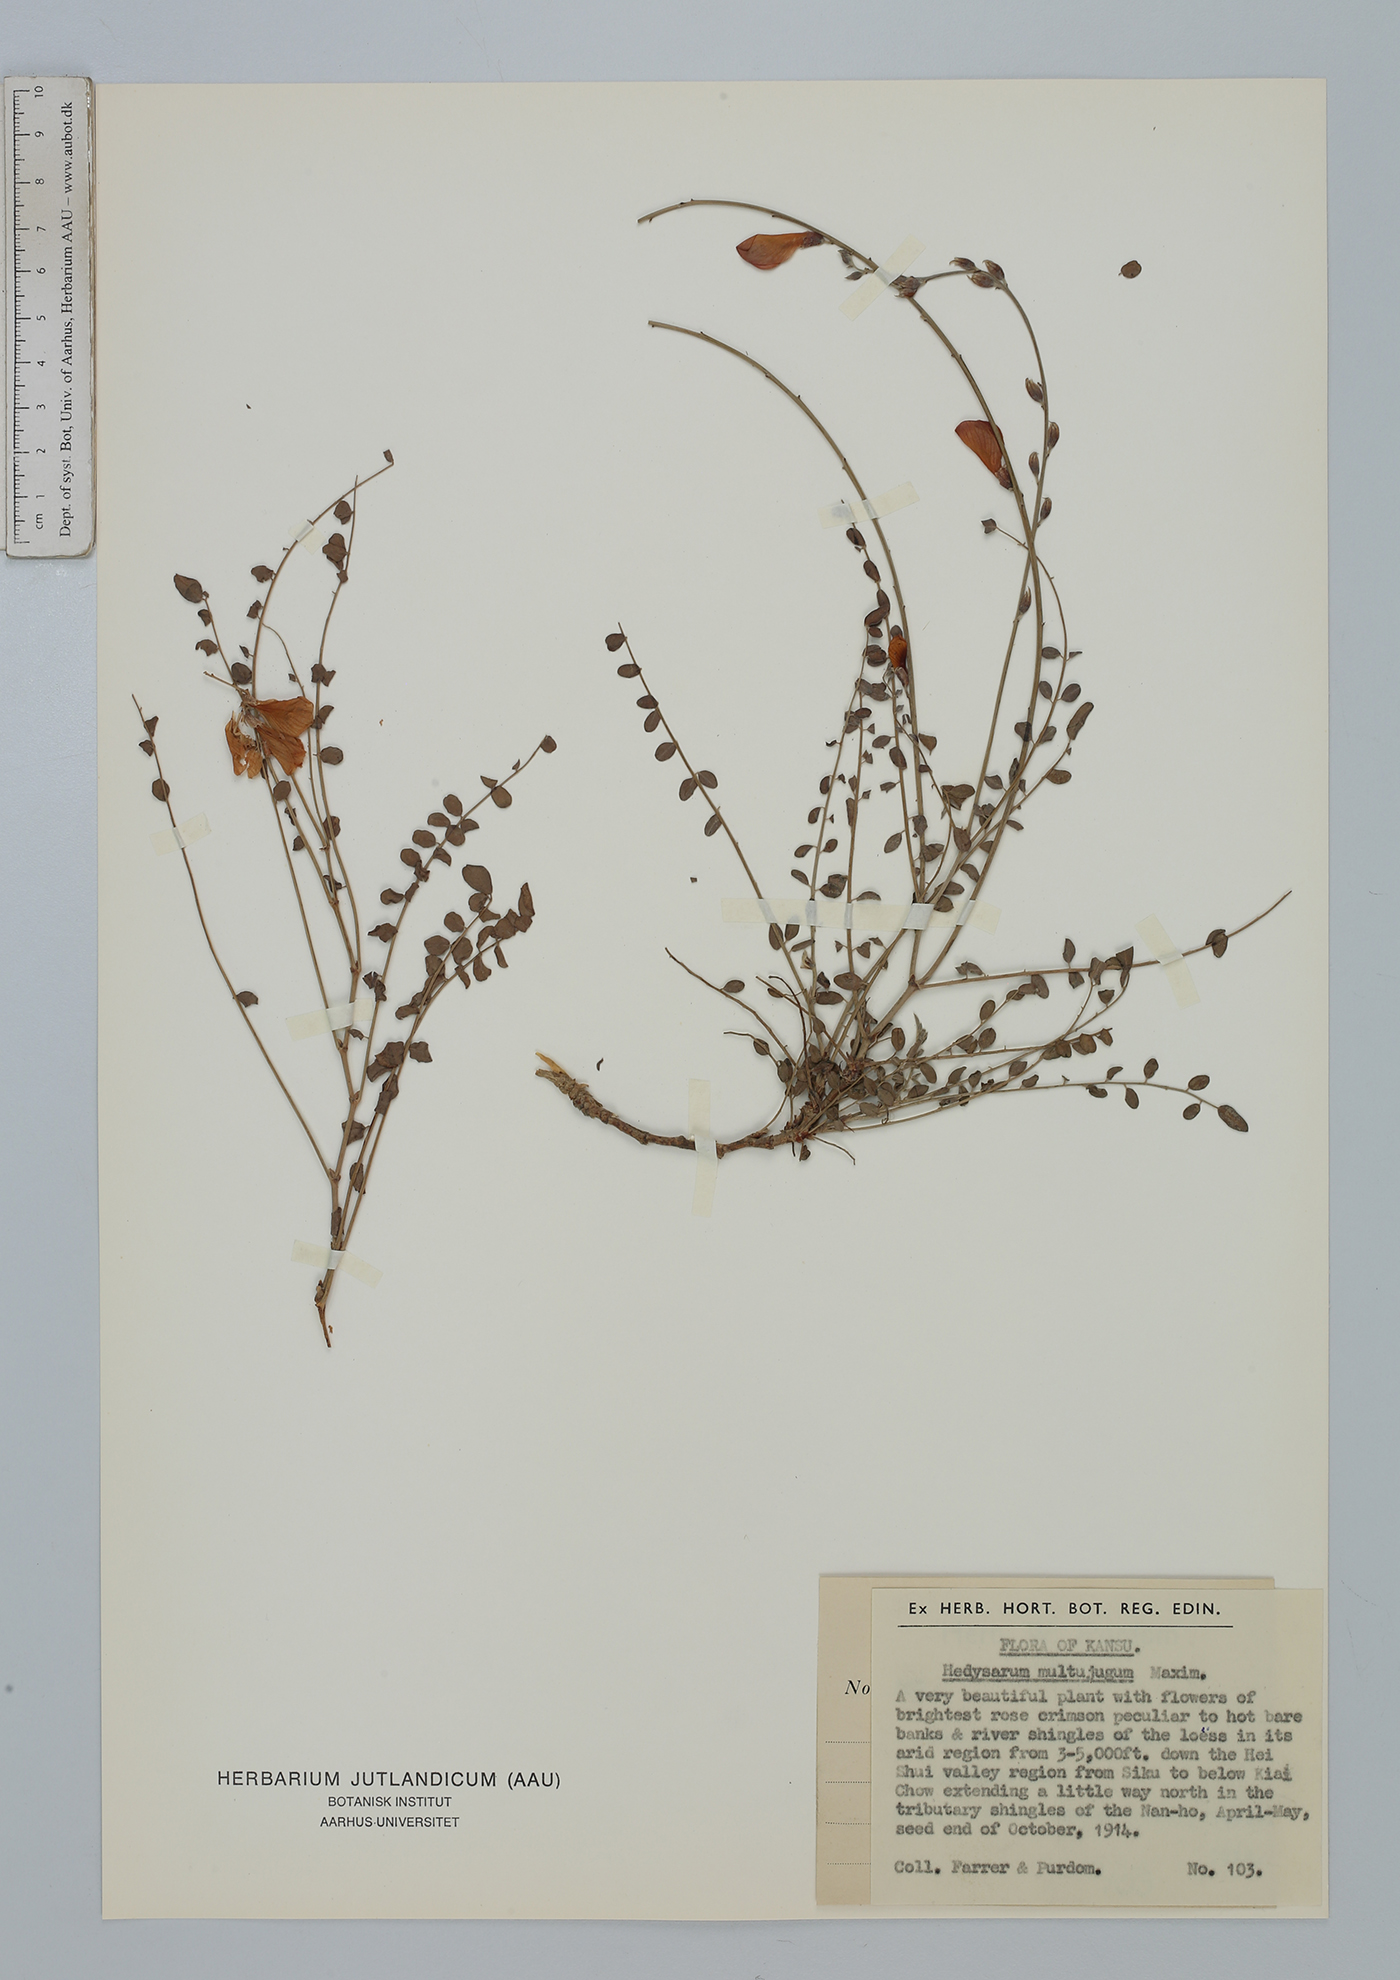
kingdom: Plantae
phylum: Tracheophyta
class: Magnoliopsida
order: Fabales
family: Fabaceae
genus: Corethrodendron
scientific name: Corethrodendron multijugum
